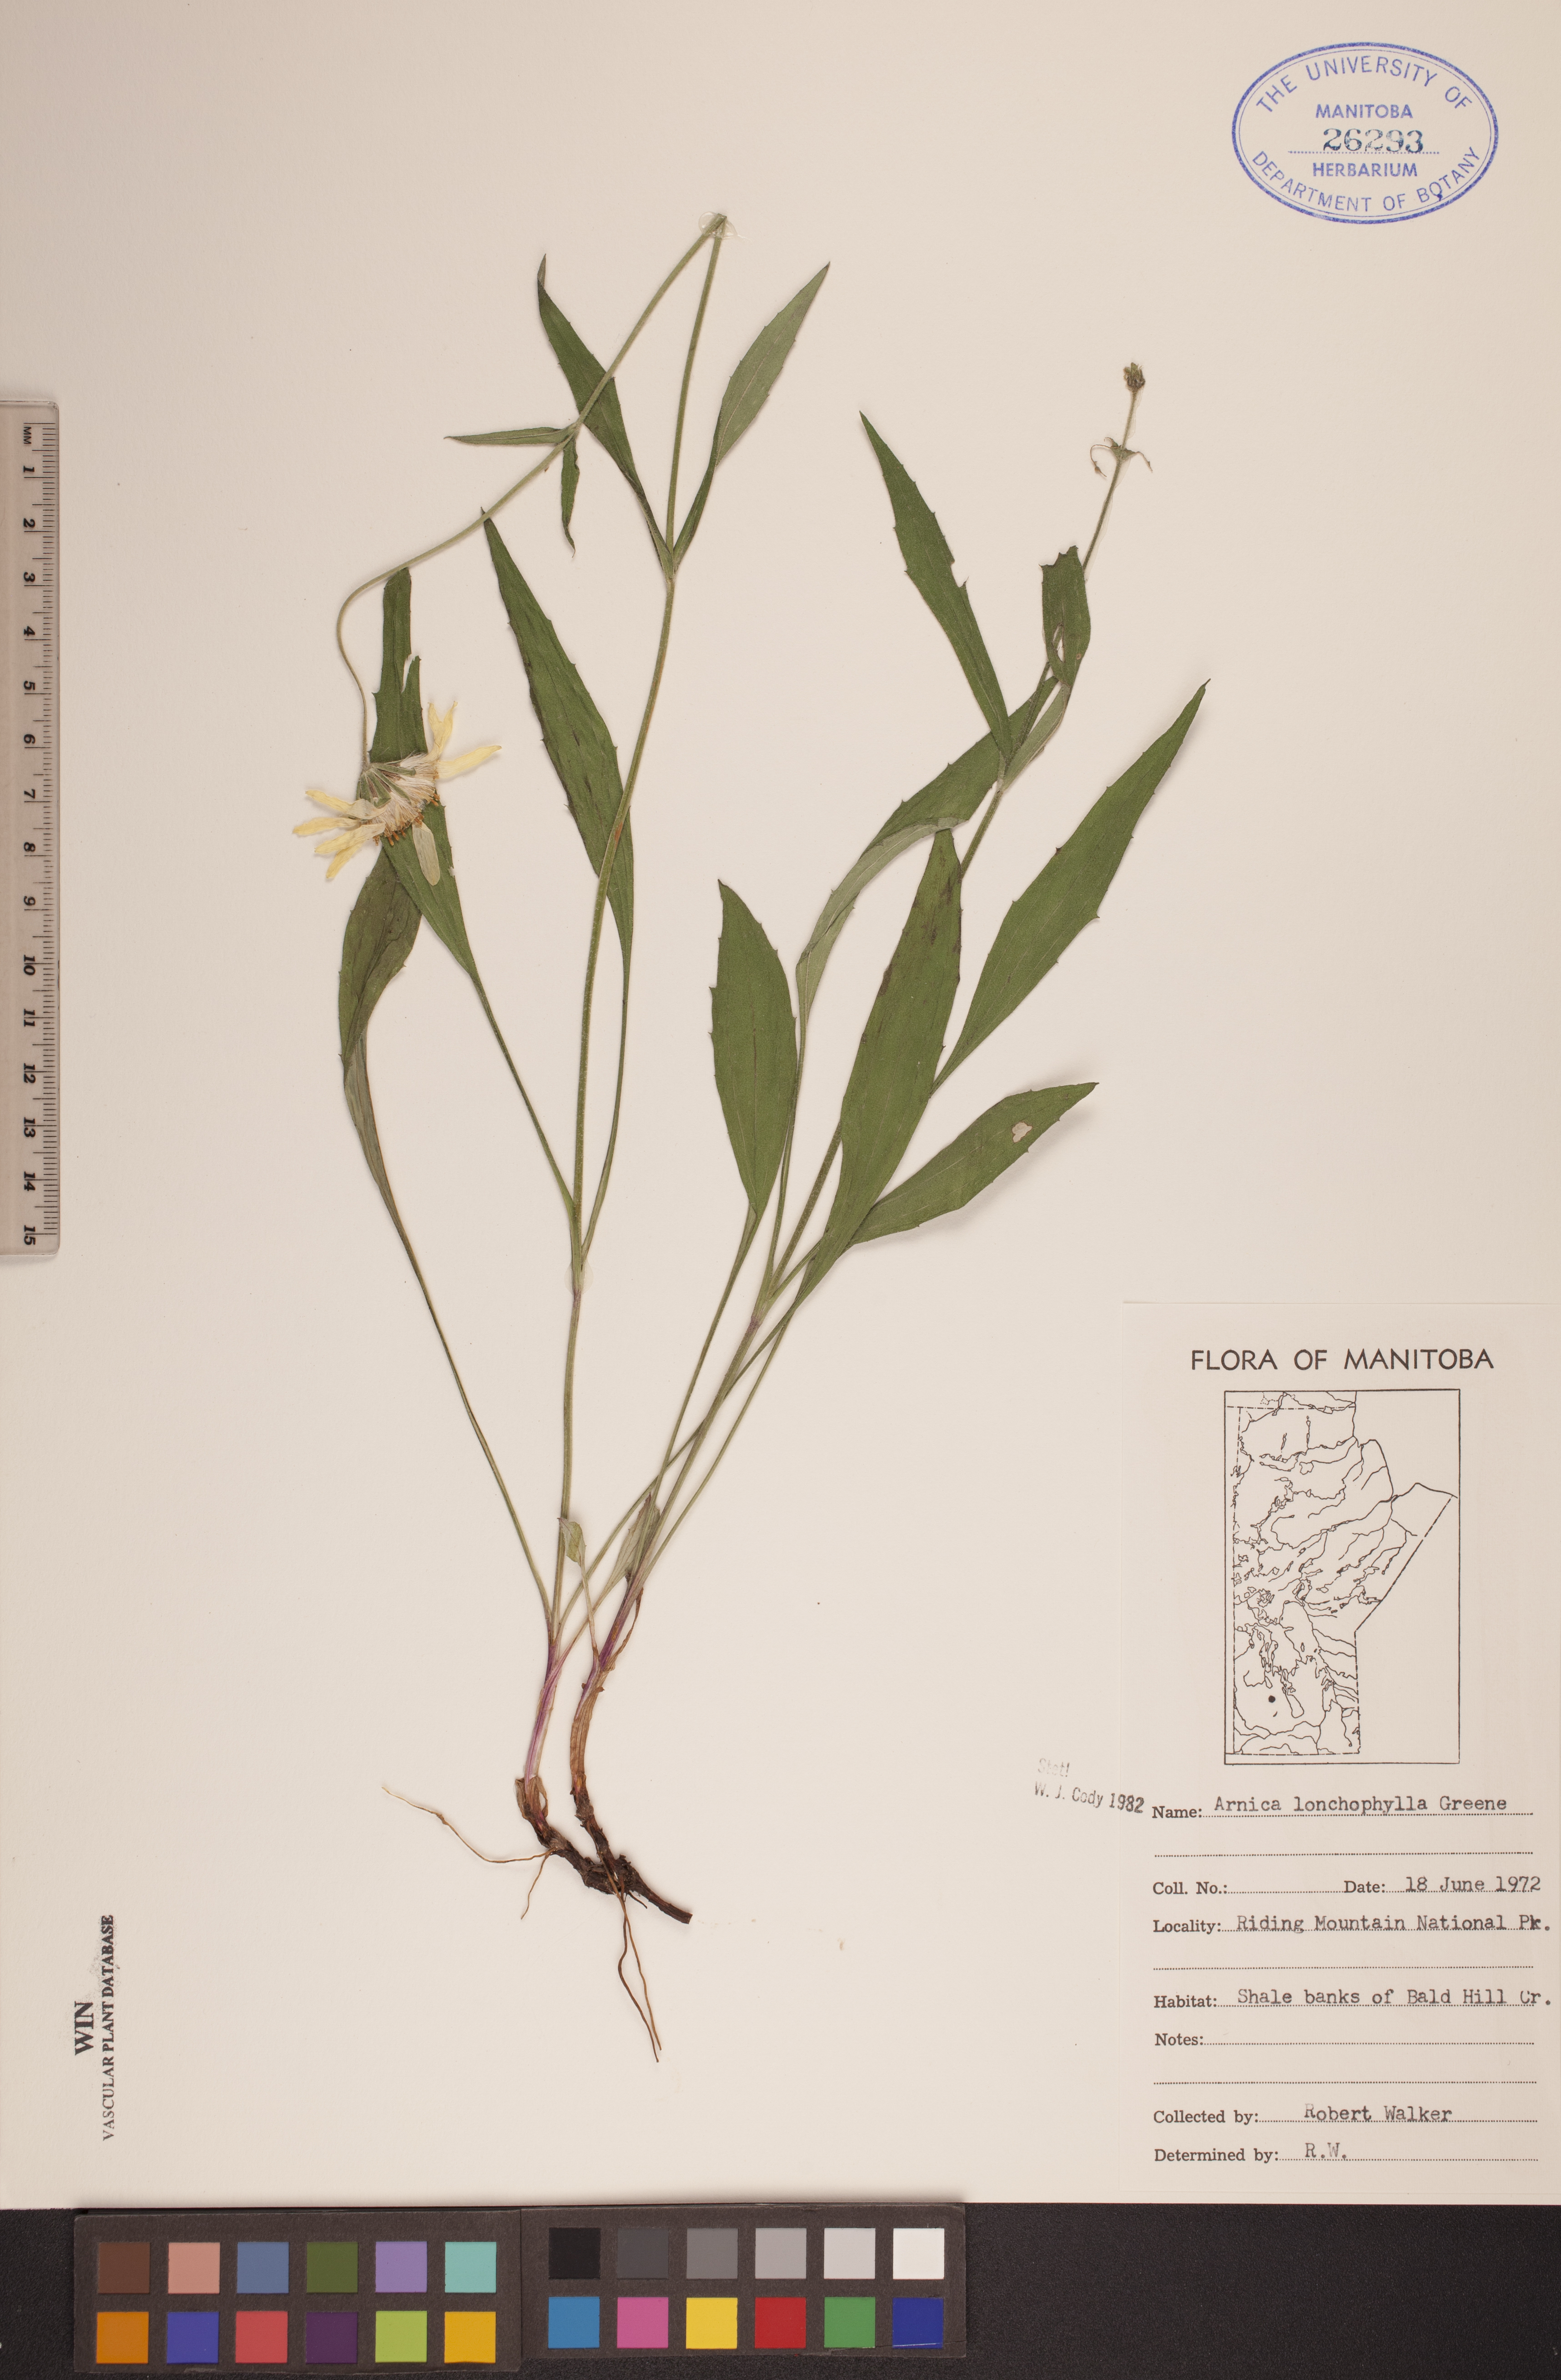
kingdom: Plantae
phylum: Tracheophyta
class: Magnoliopsida
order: Asterales
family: Asteraceae
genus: Arnica
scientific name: Arnica lonchophylla
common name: Northern arnica
